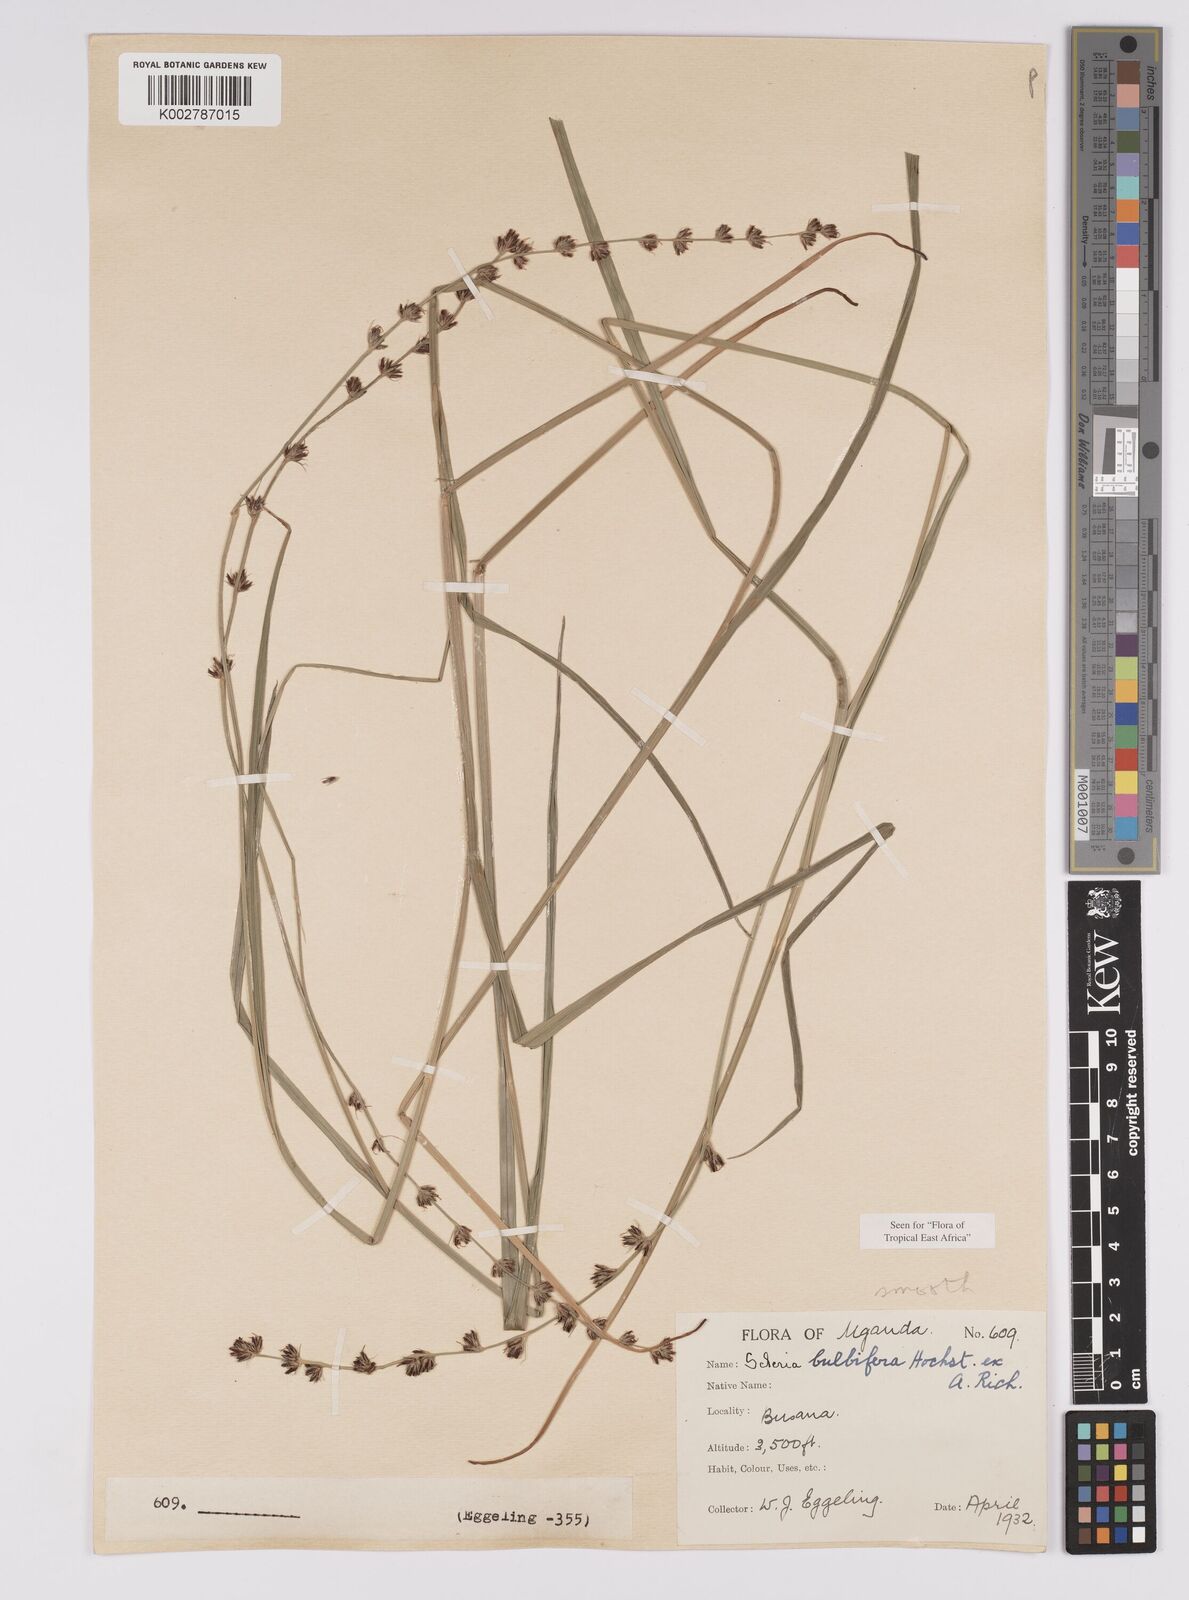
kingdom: Plantae
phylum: Tracheophyta
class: Liliopsida
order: Poales
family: Cyperaceae
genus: Scleria
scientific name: Scleria bulbifera
